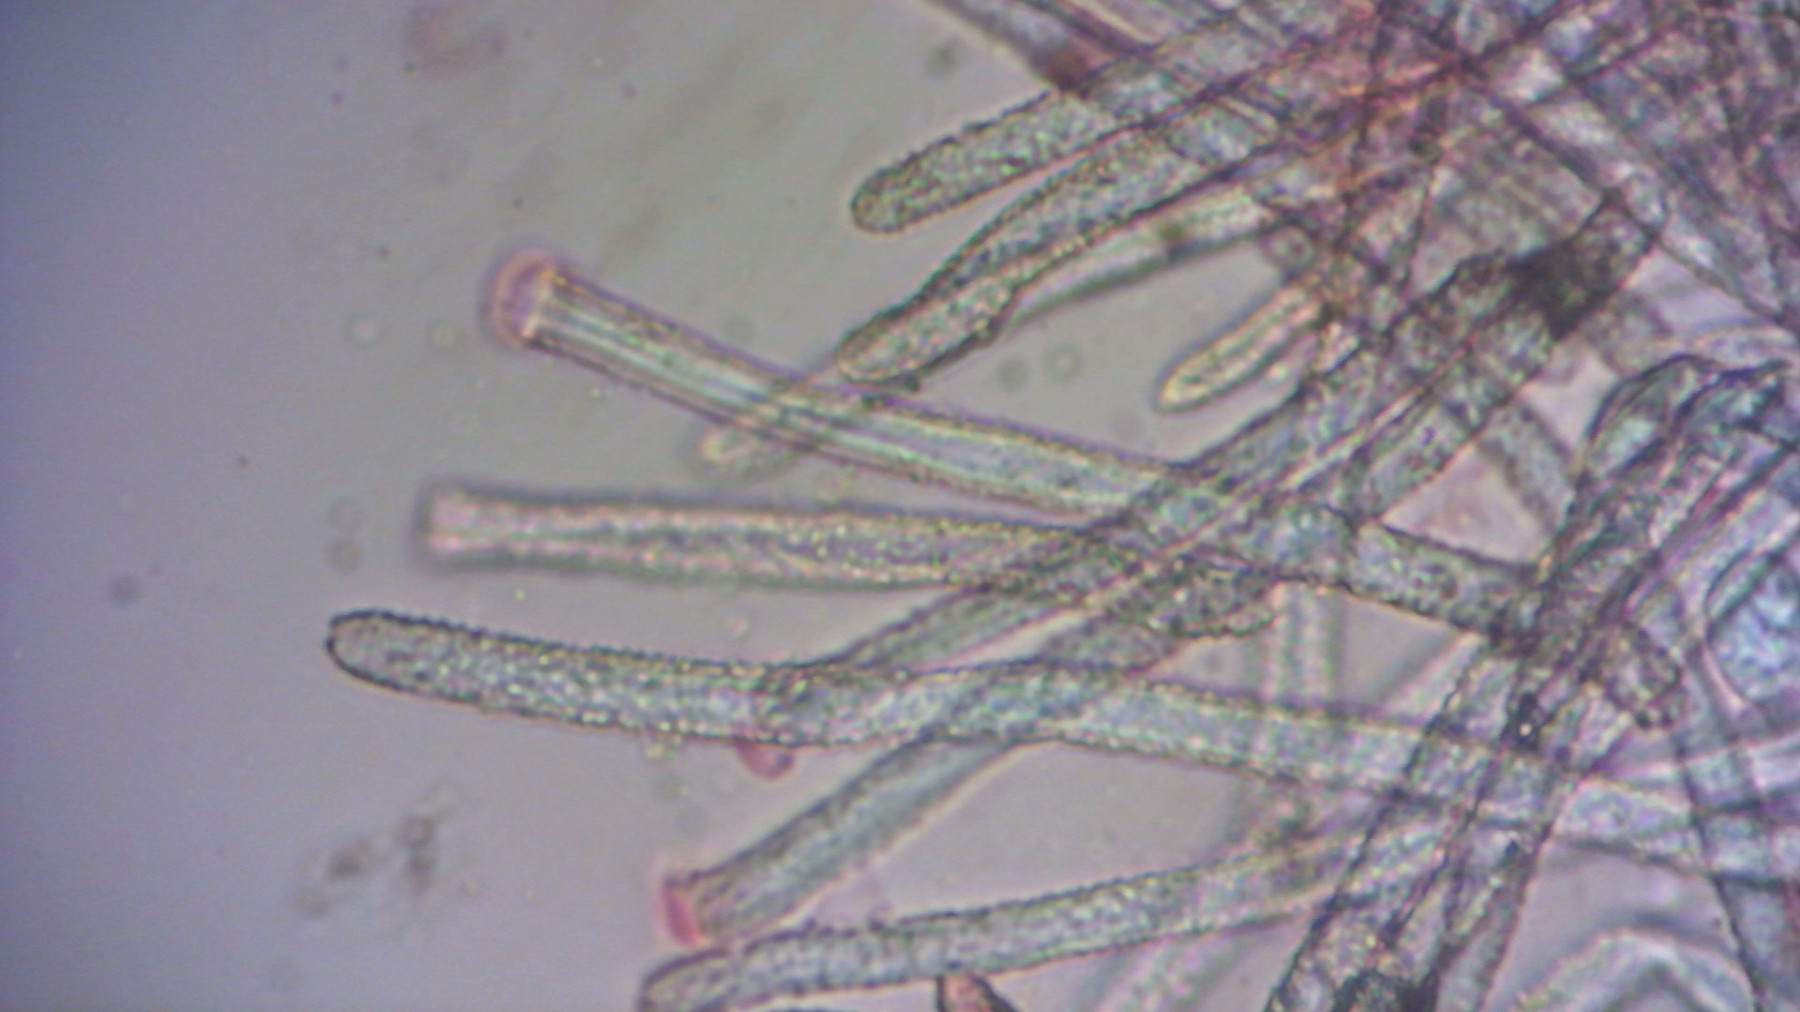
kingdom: Fungi
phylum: Basidiomycota
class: Agaricomycetes
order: Agaricales
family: Niaceae
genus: Lachnella
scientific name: Lachnella alboviolascens
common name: grå frynserede
